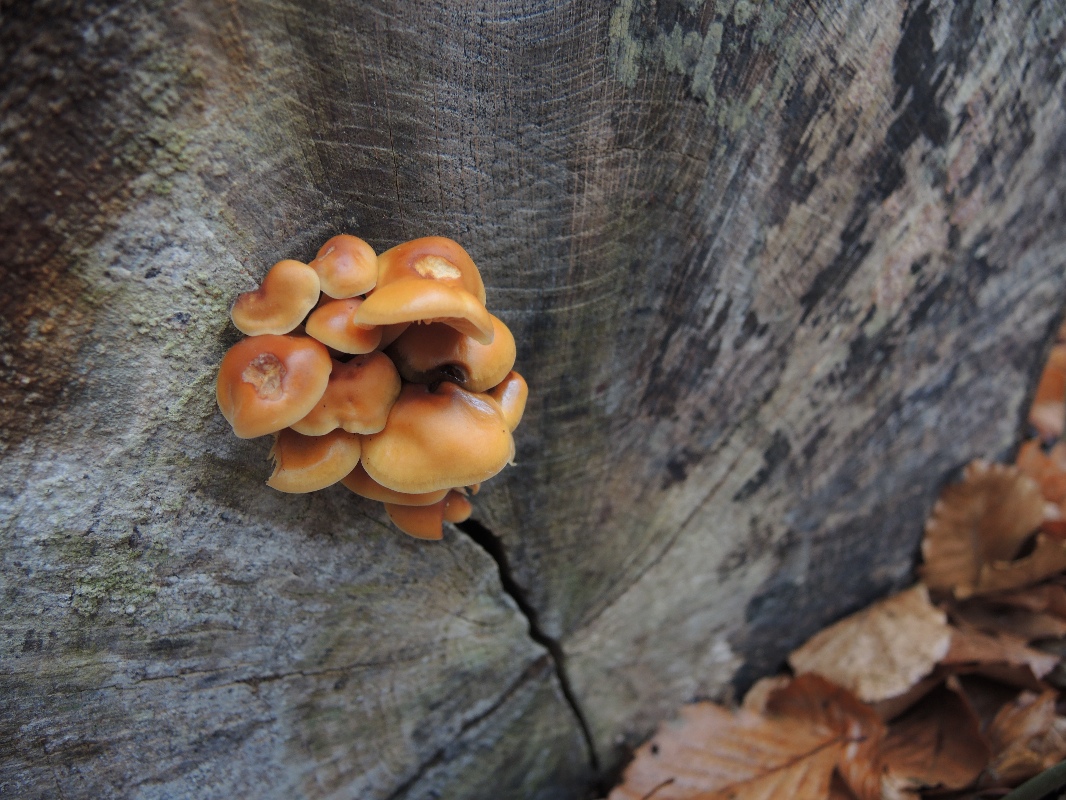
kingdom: Fungi
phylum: Basidiomycota
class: Agaricomycetes
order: Agaricales
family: Physalacriaceae
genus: Flammulina
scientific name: Flammulina velutipes
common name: gul fløjlsfod
